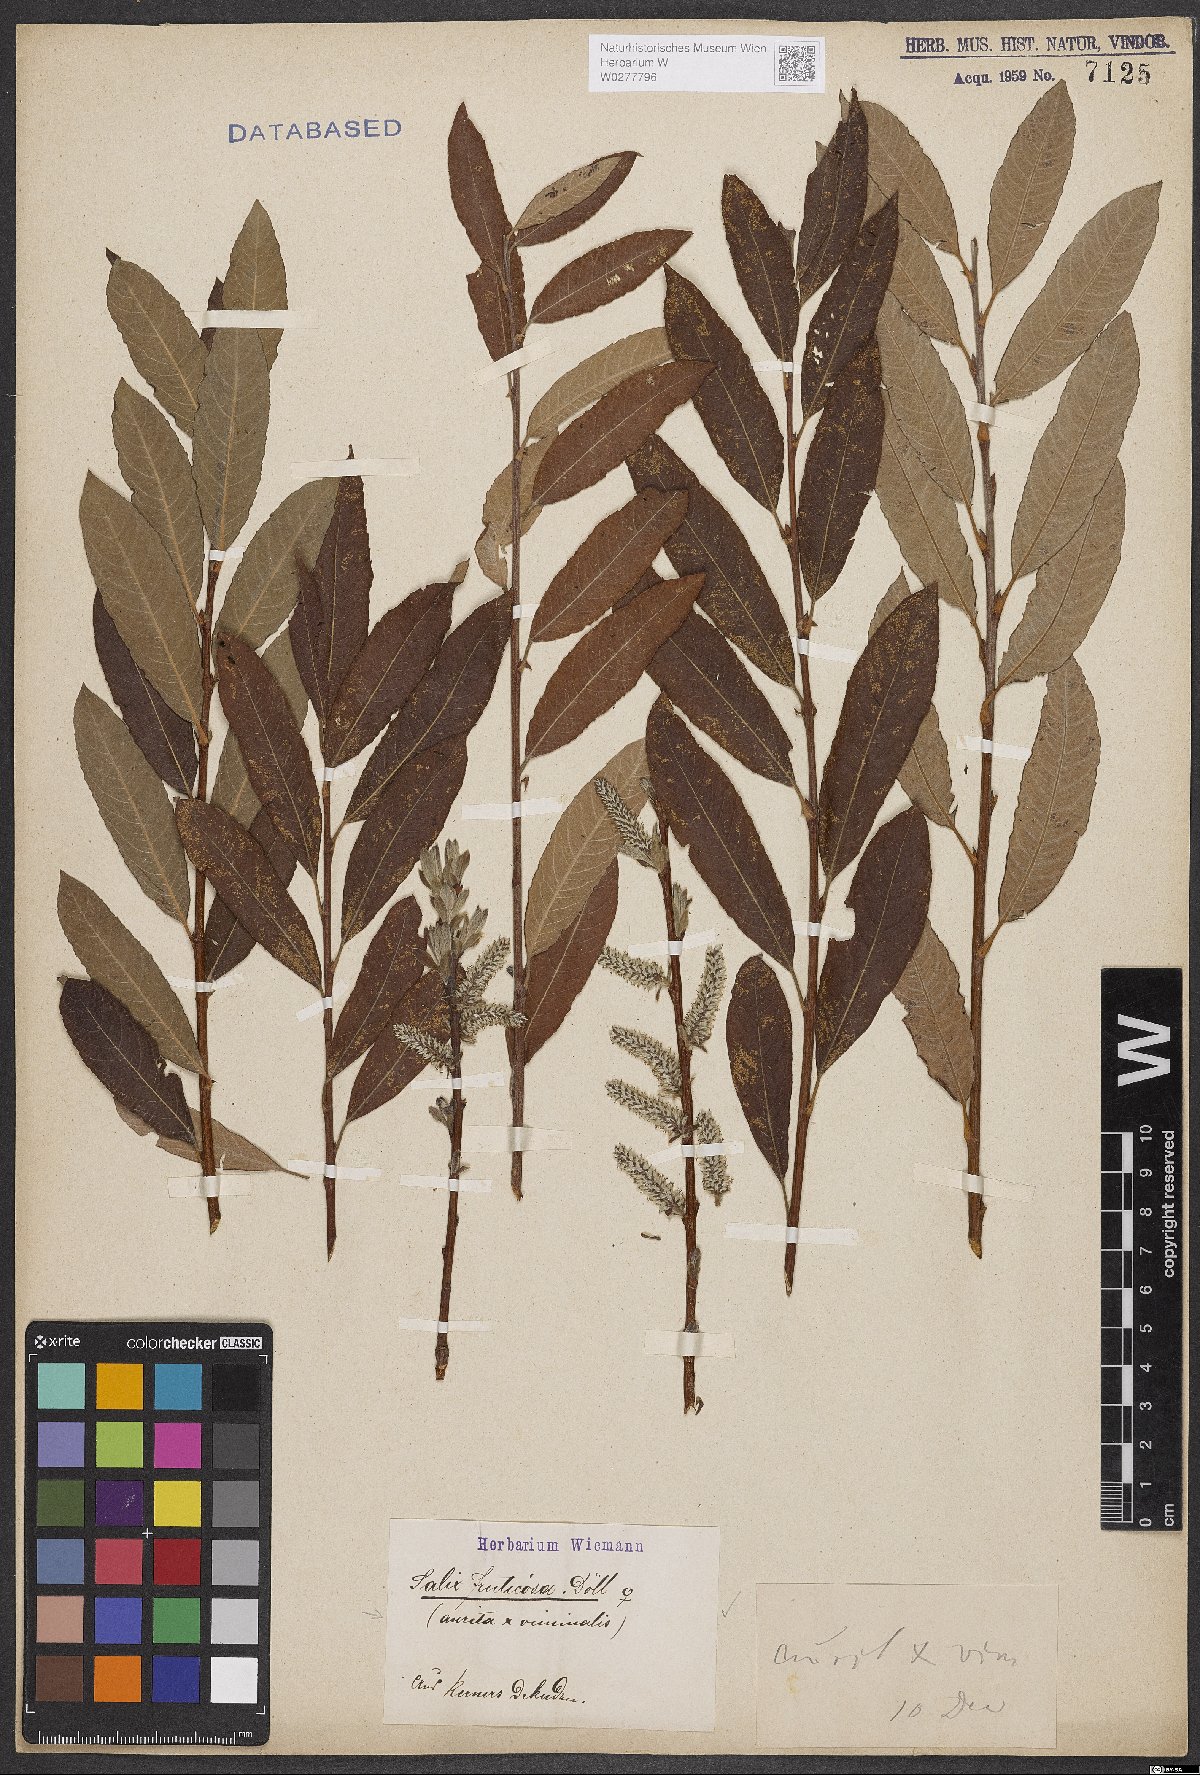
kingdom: Plantae
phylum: Tracheophyta
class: Magnoliopsida
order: Malpighiales
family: Salicaceae
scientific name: Salicaceae
